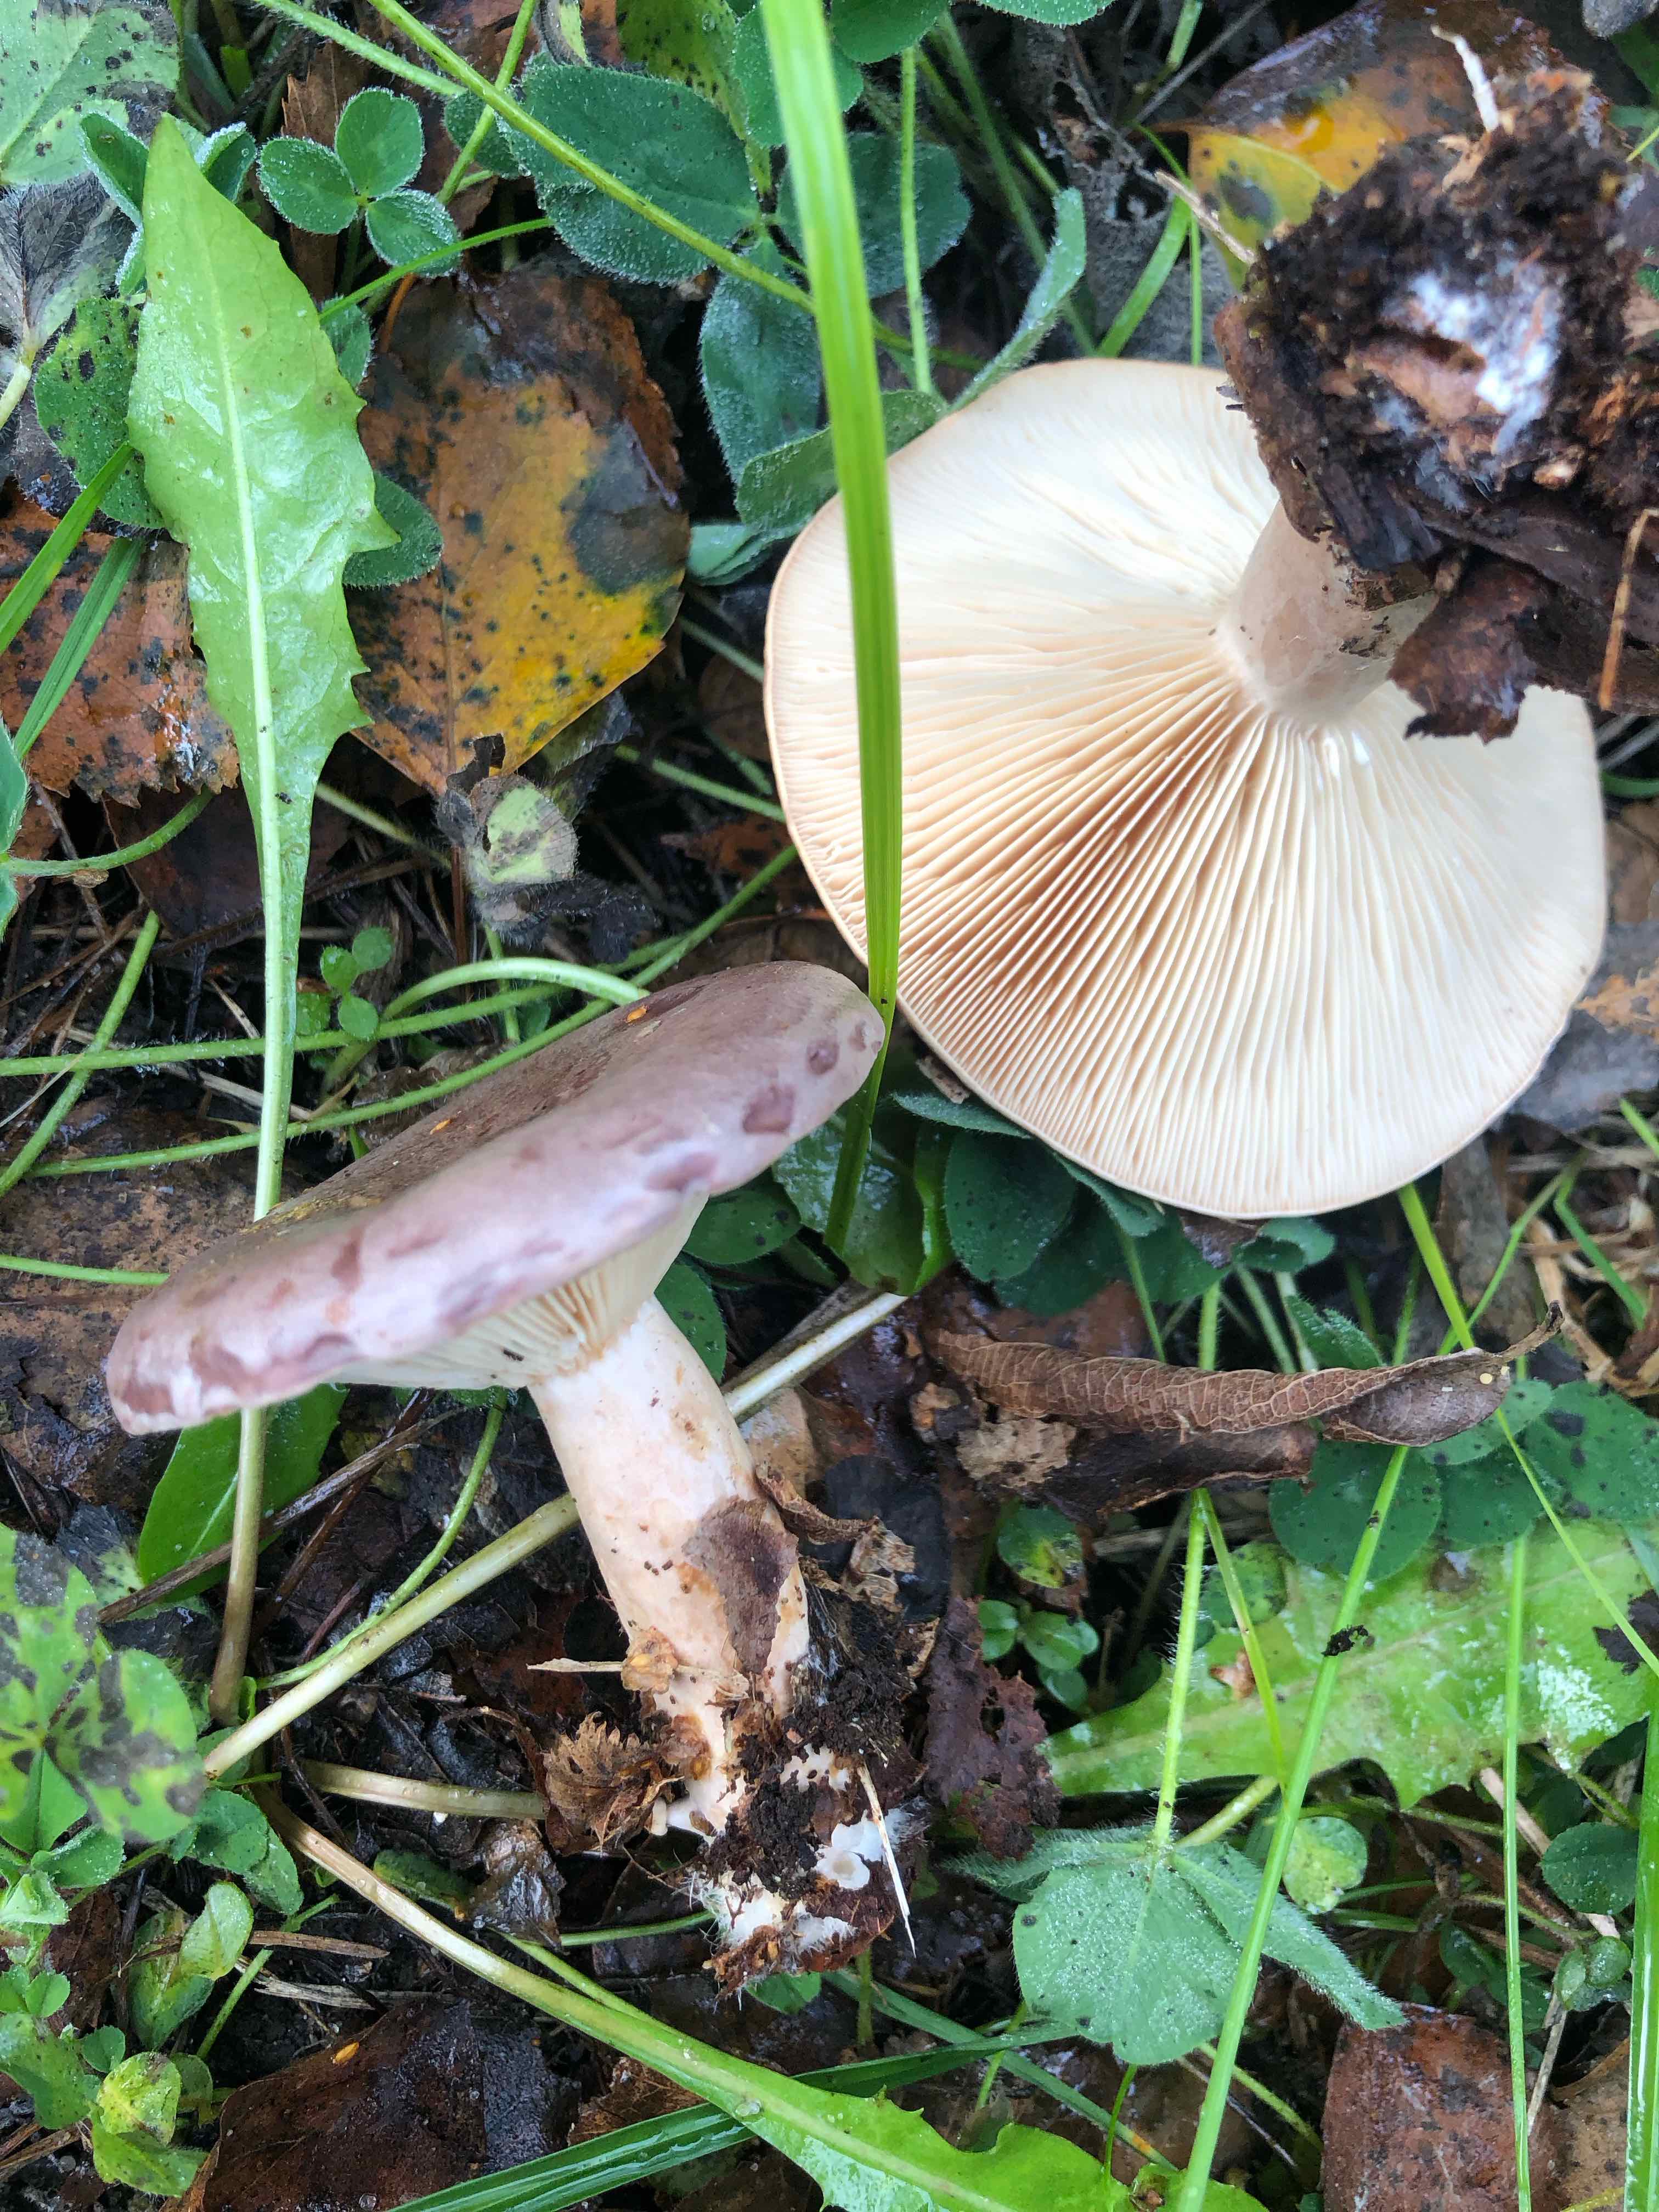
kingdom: Fungi
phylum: Basidiomycota
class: Agaricomycetes
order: Russulales
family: Russulaceae
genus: Lactarius
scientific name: Lactarius trivialis
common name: nordisk mælkehat
